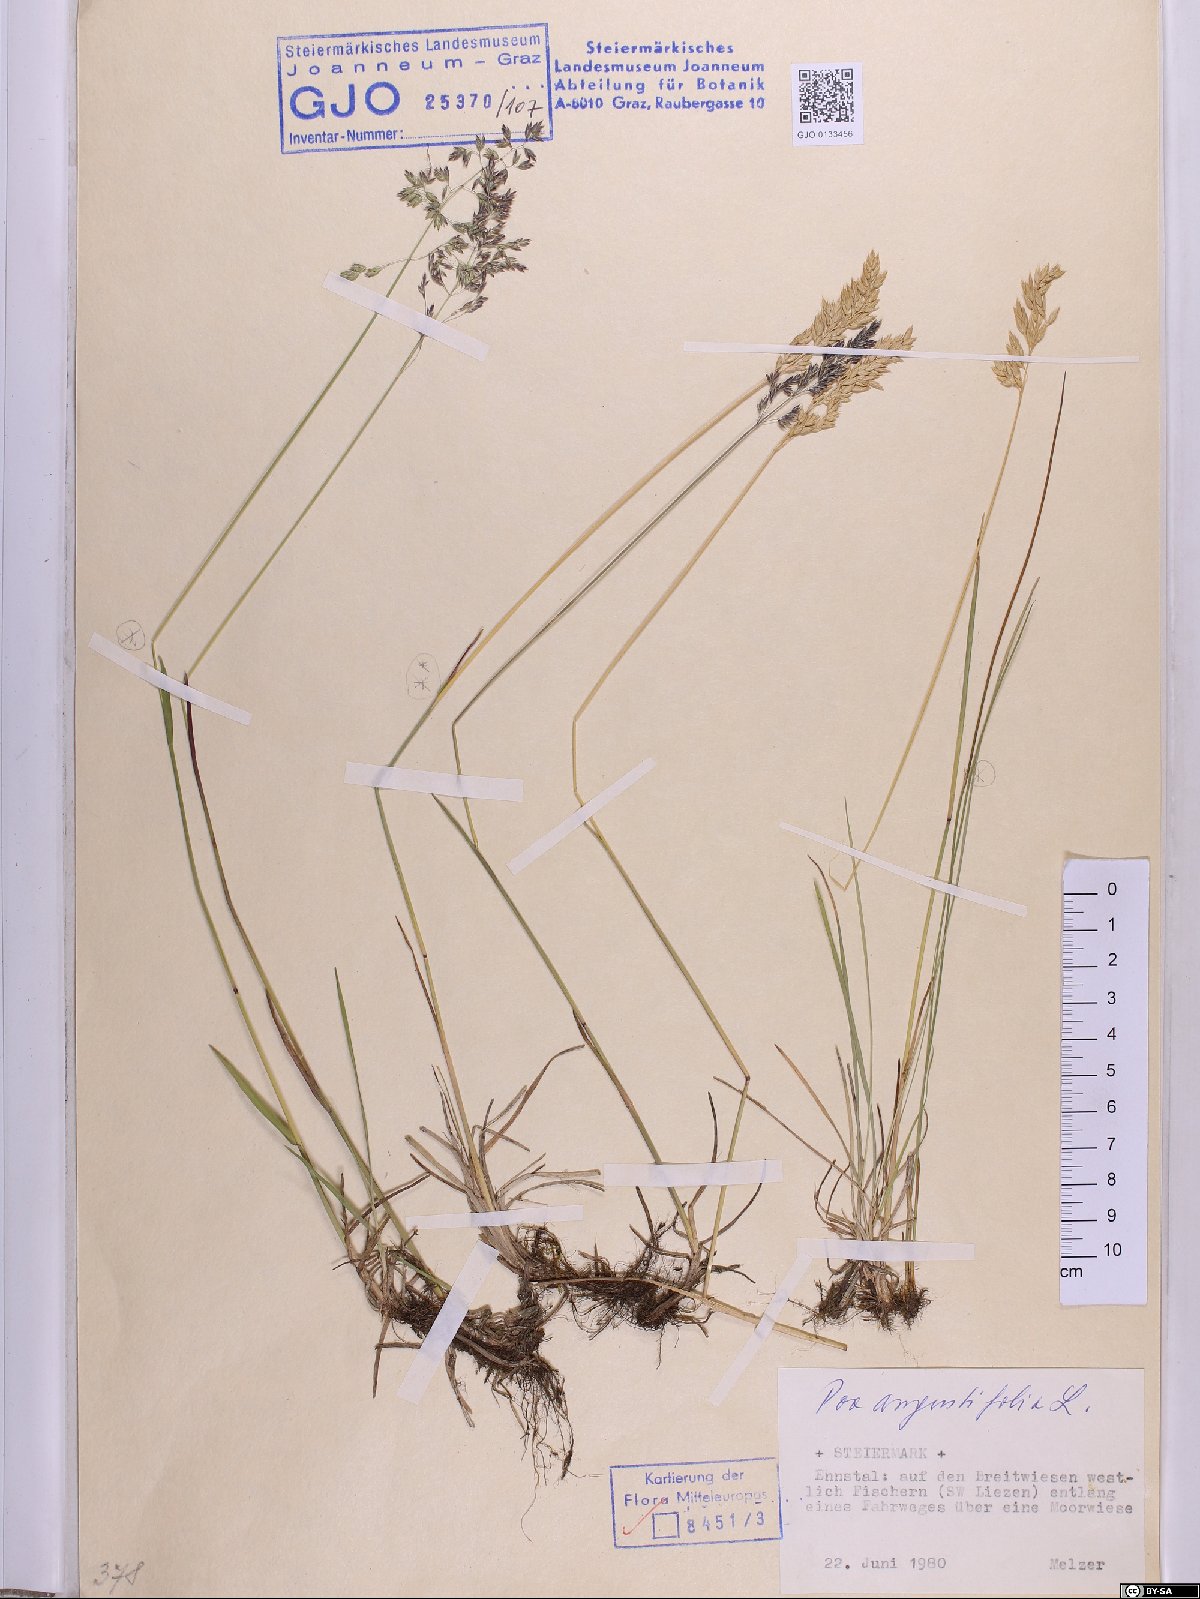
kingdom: Plantae
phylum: Tracheophyta
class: Liliopsida
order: Poales
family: Poaceae
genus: Poa
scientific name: Poa angustifolia
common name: Narrow-leaved meadow-grass
